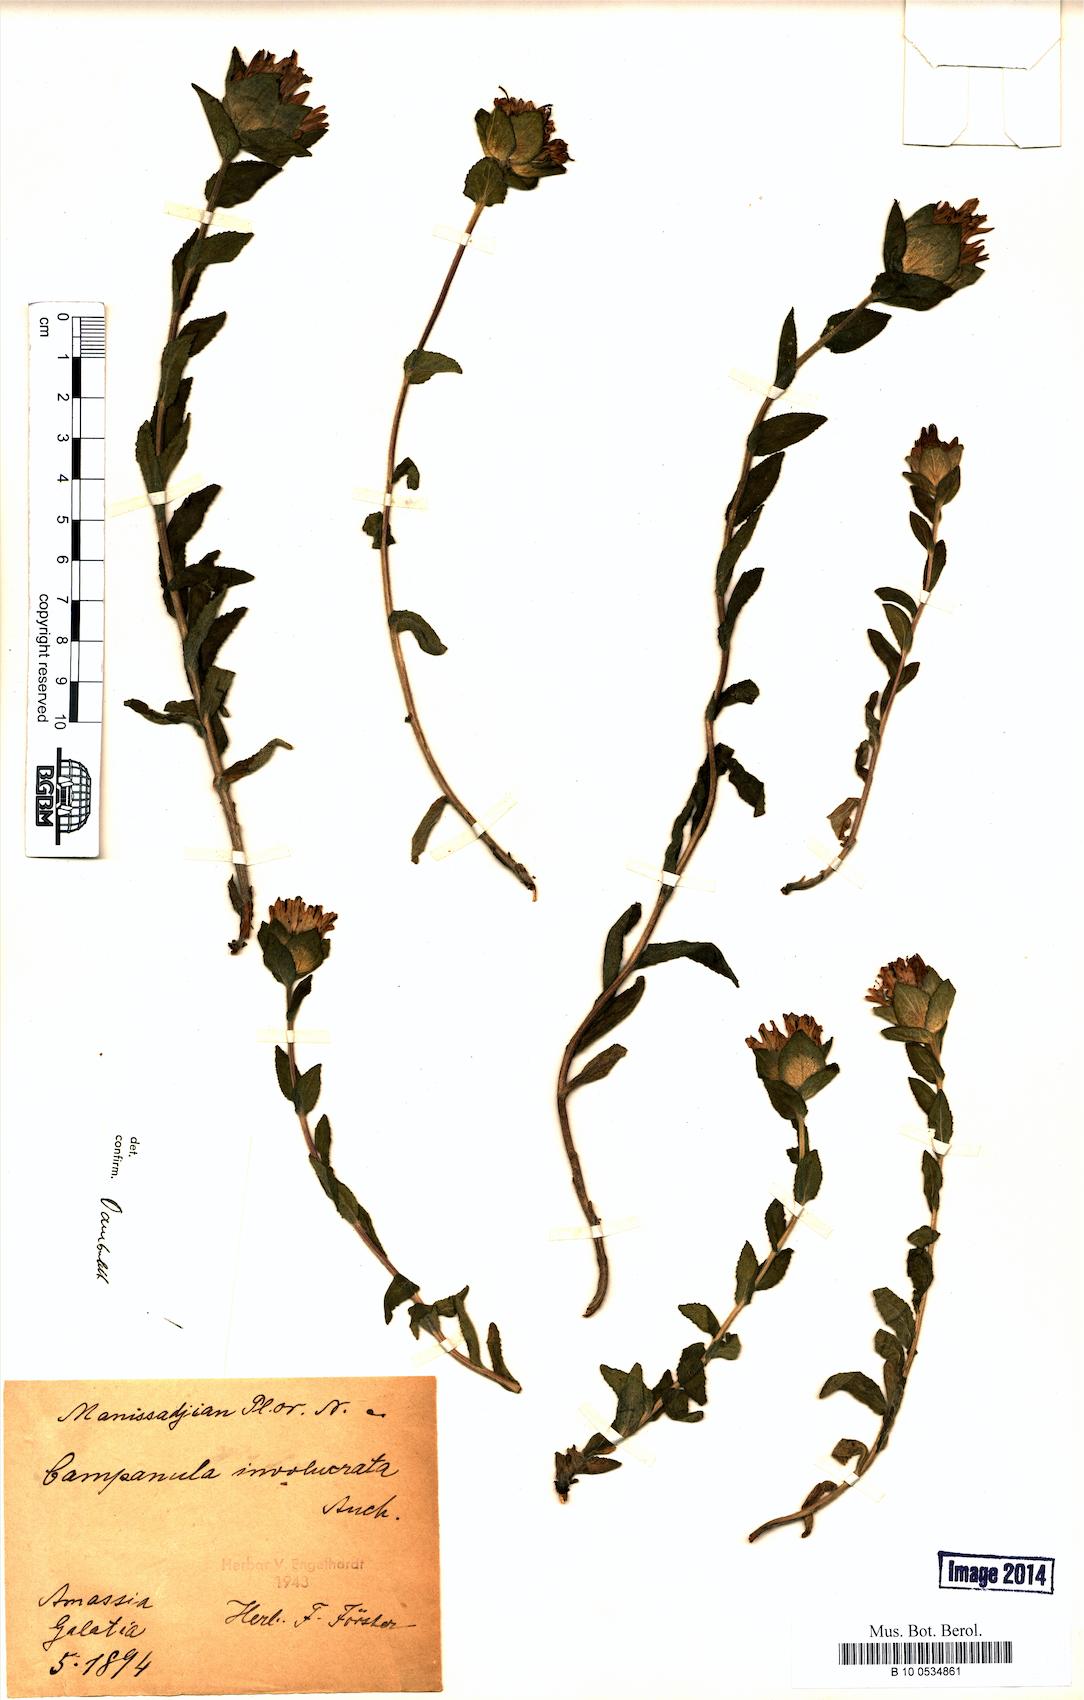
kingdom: Plantae
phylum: Tracheophyta
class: Magnoliopsida
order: Asterales
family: Campanulaceae
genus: Campanula
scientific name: Campanula involucrata
